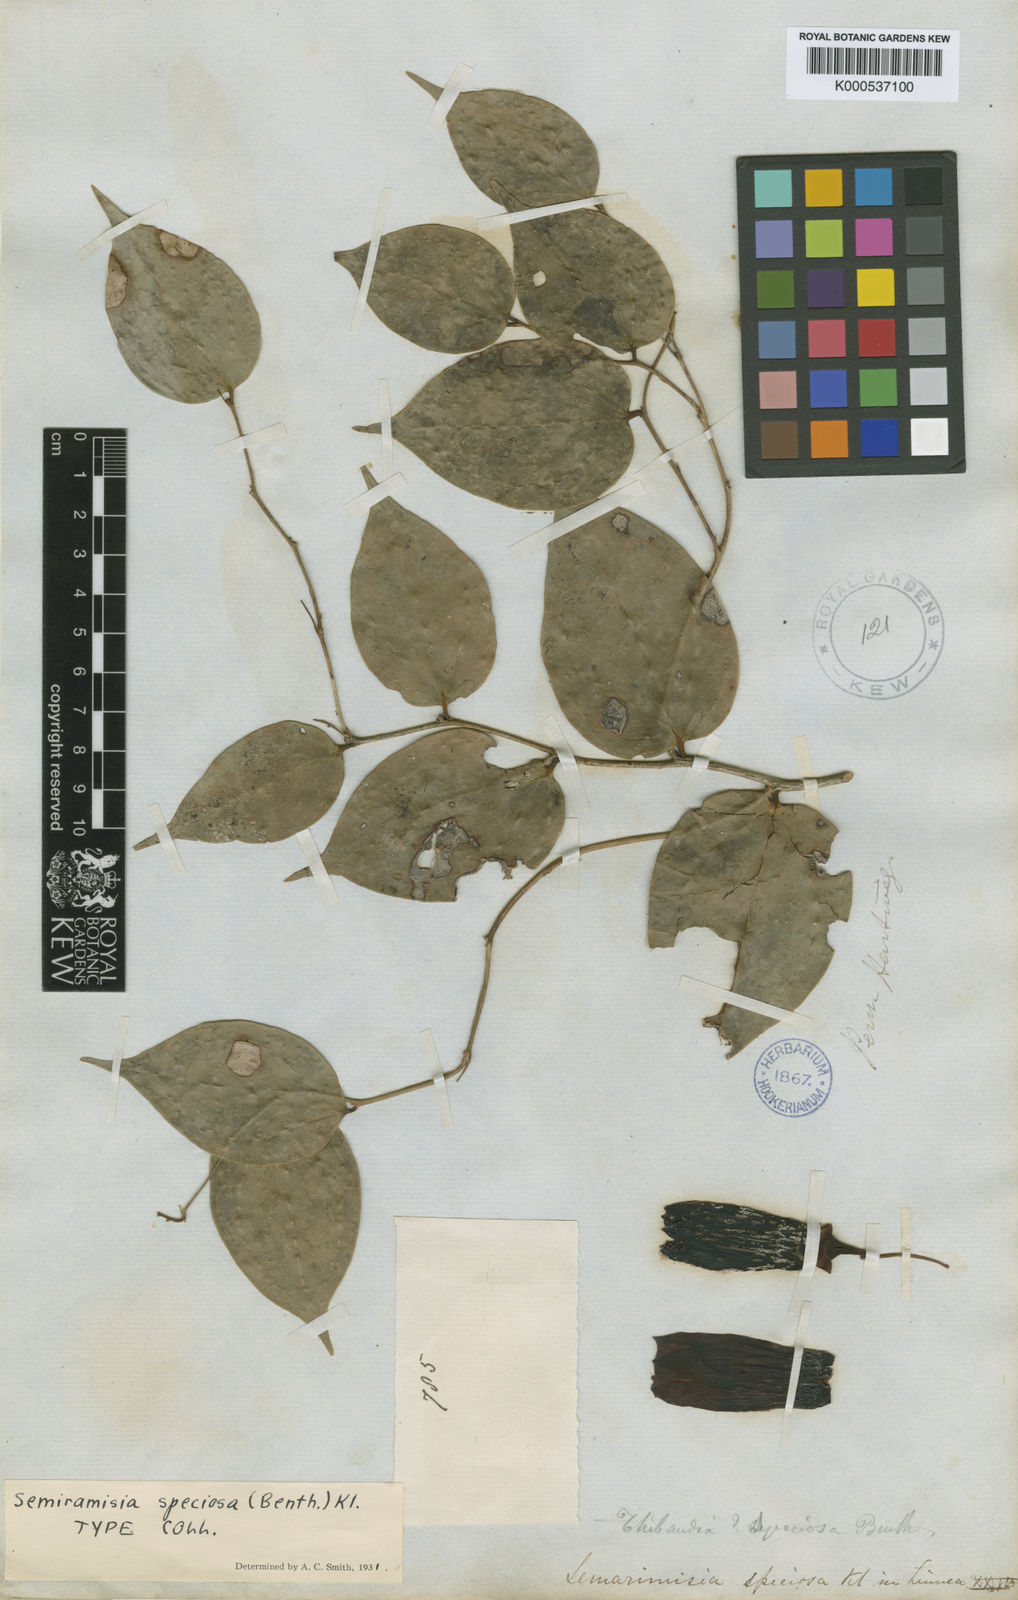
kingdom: Plantae
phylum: Tracheophyta
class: Magnoliopsida
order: Ericales
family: Ericaceae
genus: Semiramisia
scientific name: Semiramisia speciosa
